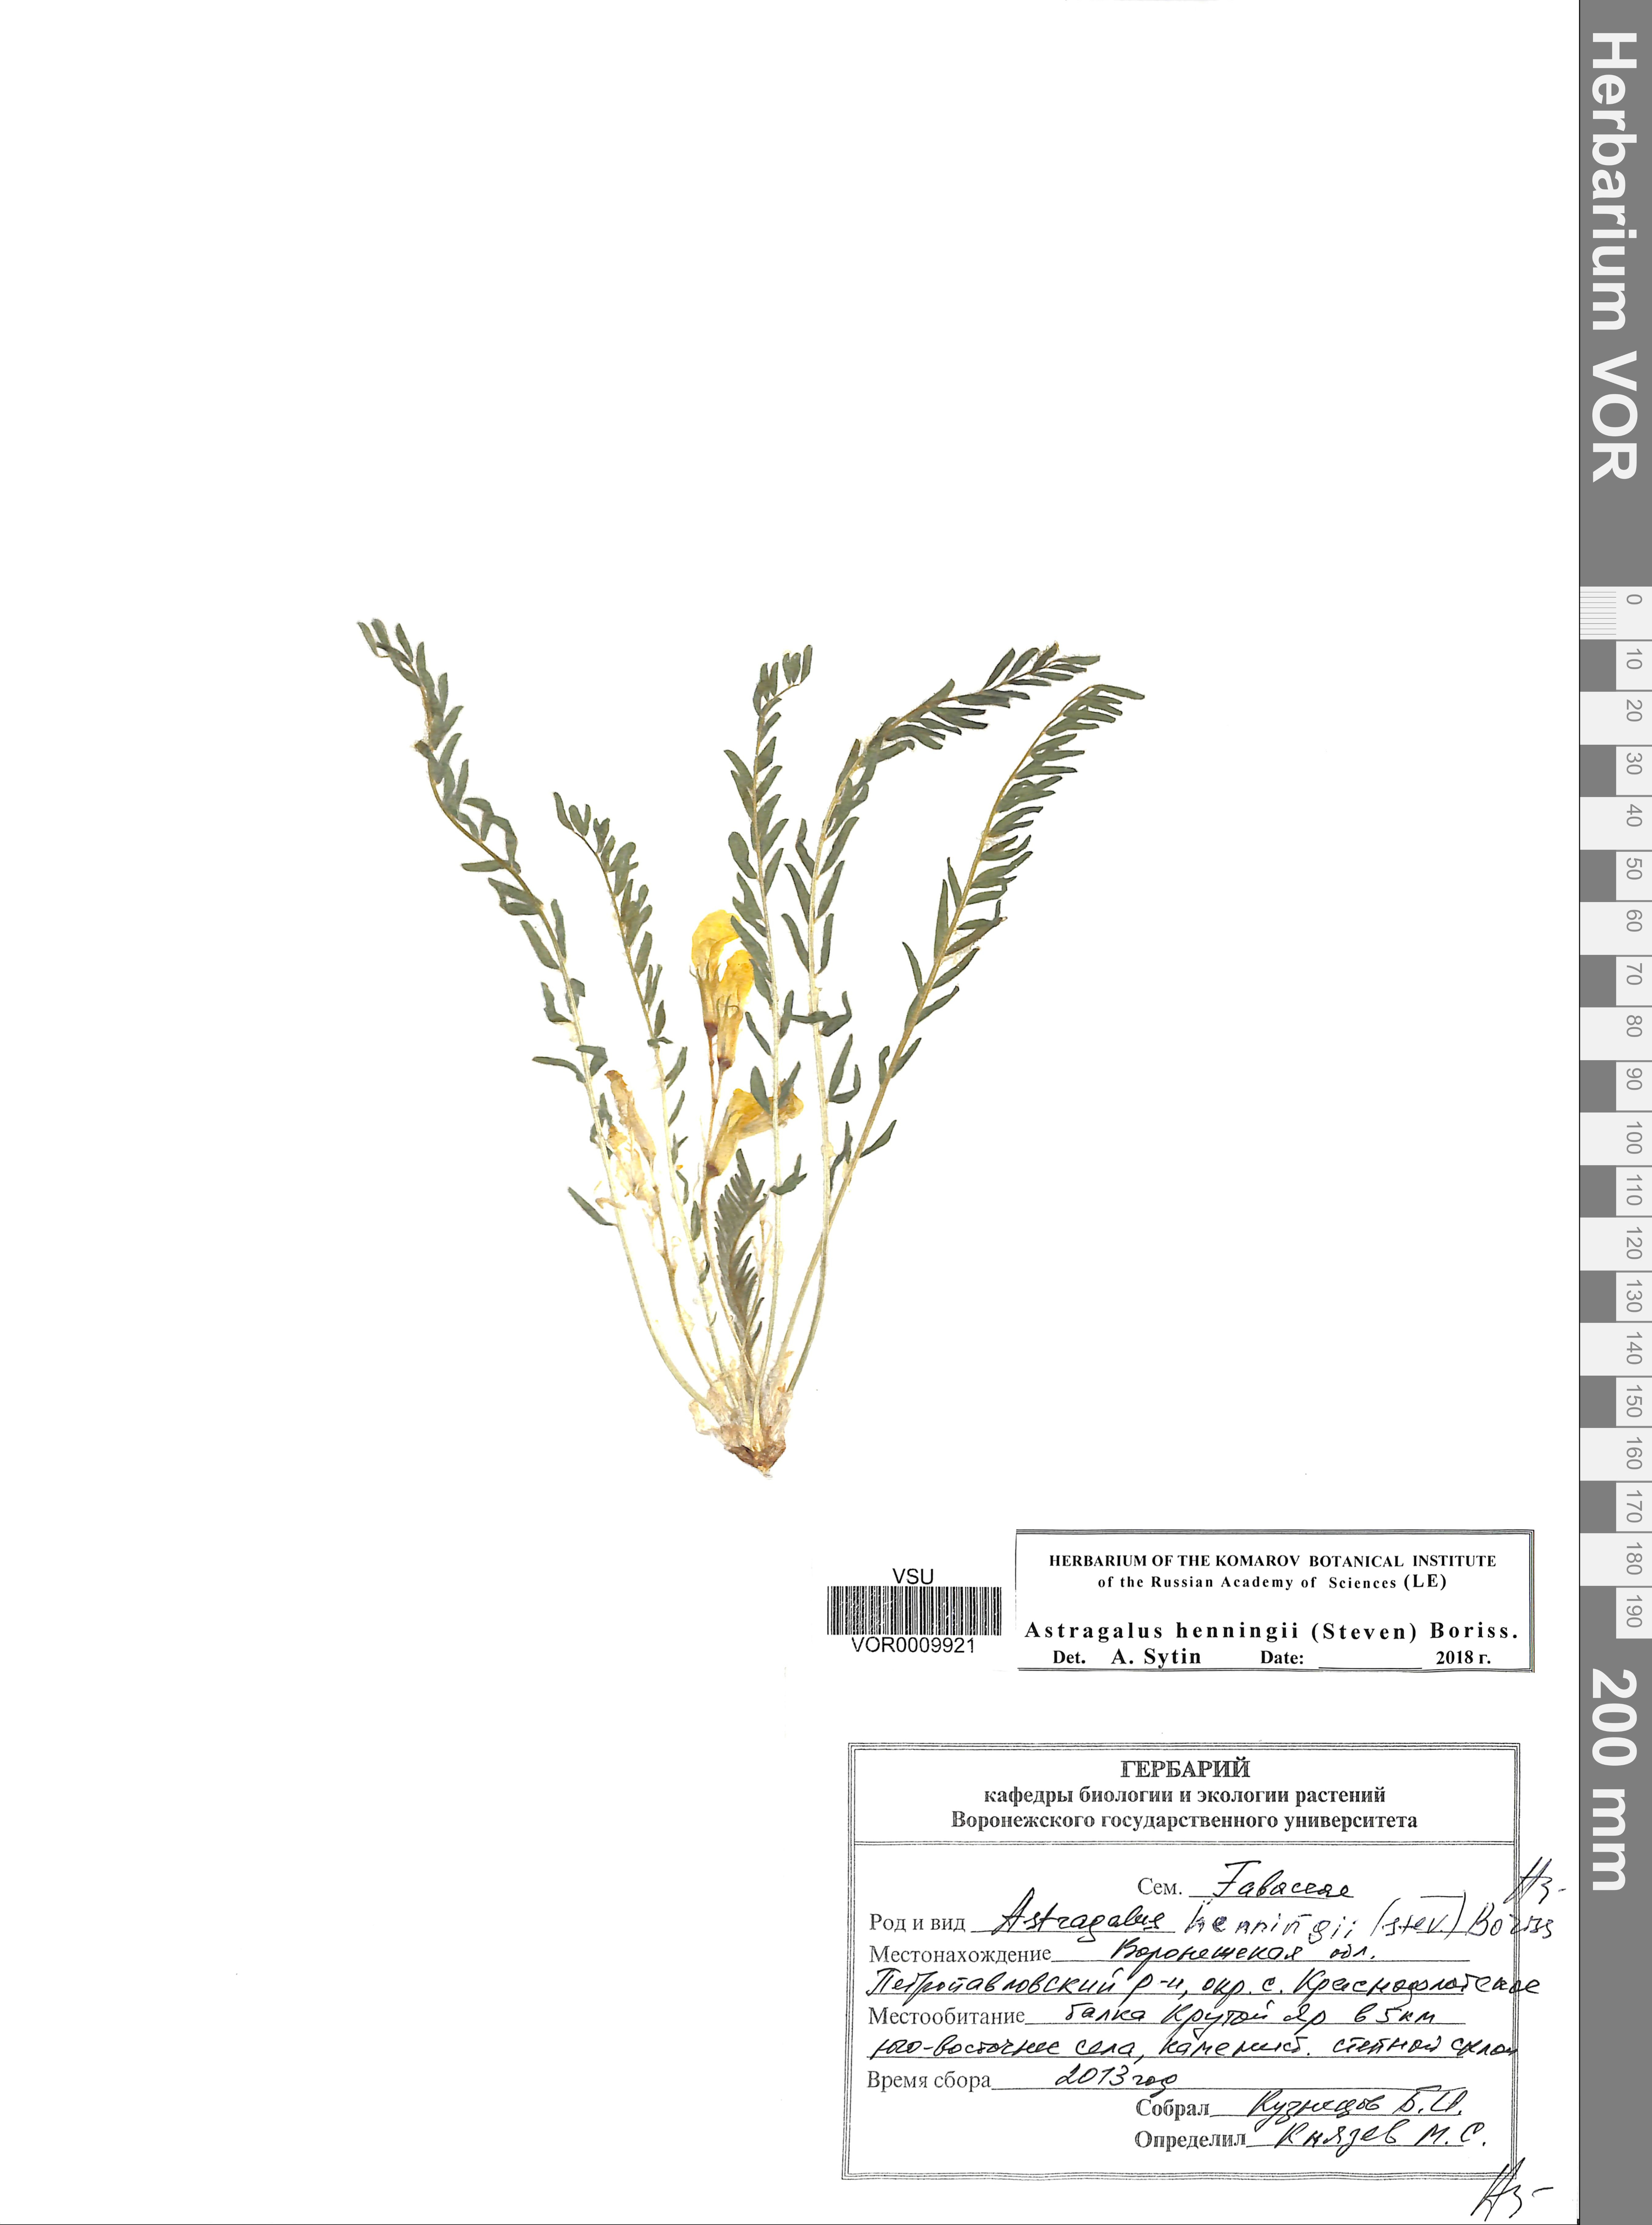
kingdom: Plantae
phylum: Tracheophyta
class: Magnoliopsida
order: Fabales
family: Fabaceae
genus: Astragalus
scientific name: Astragalus buchtormensis
